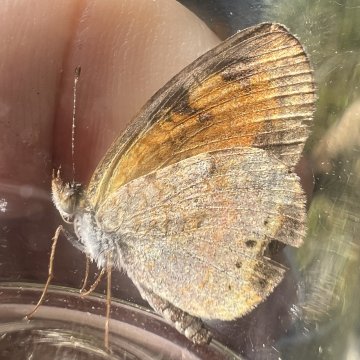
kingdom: Animalia
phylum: Arthropoda
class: Insecta
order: Lepidoptera
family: Nymphalidae
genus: Phyciodes
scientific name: Phyciodes tharos
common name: Pearl Crescent
